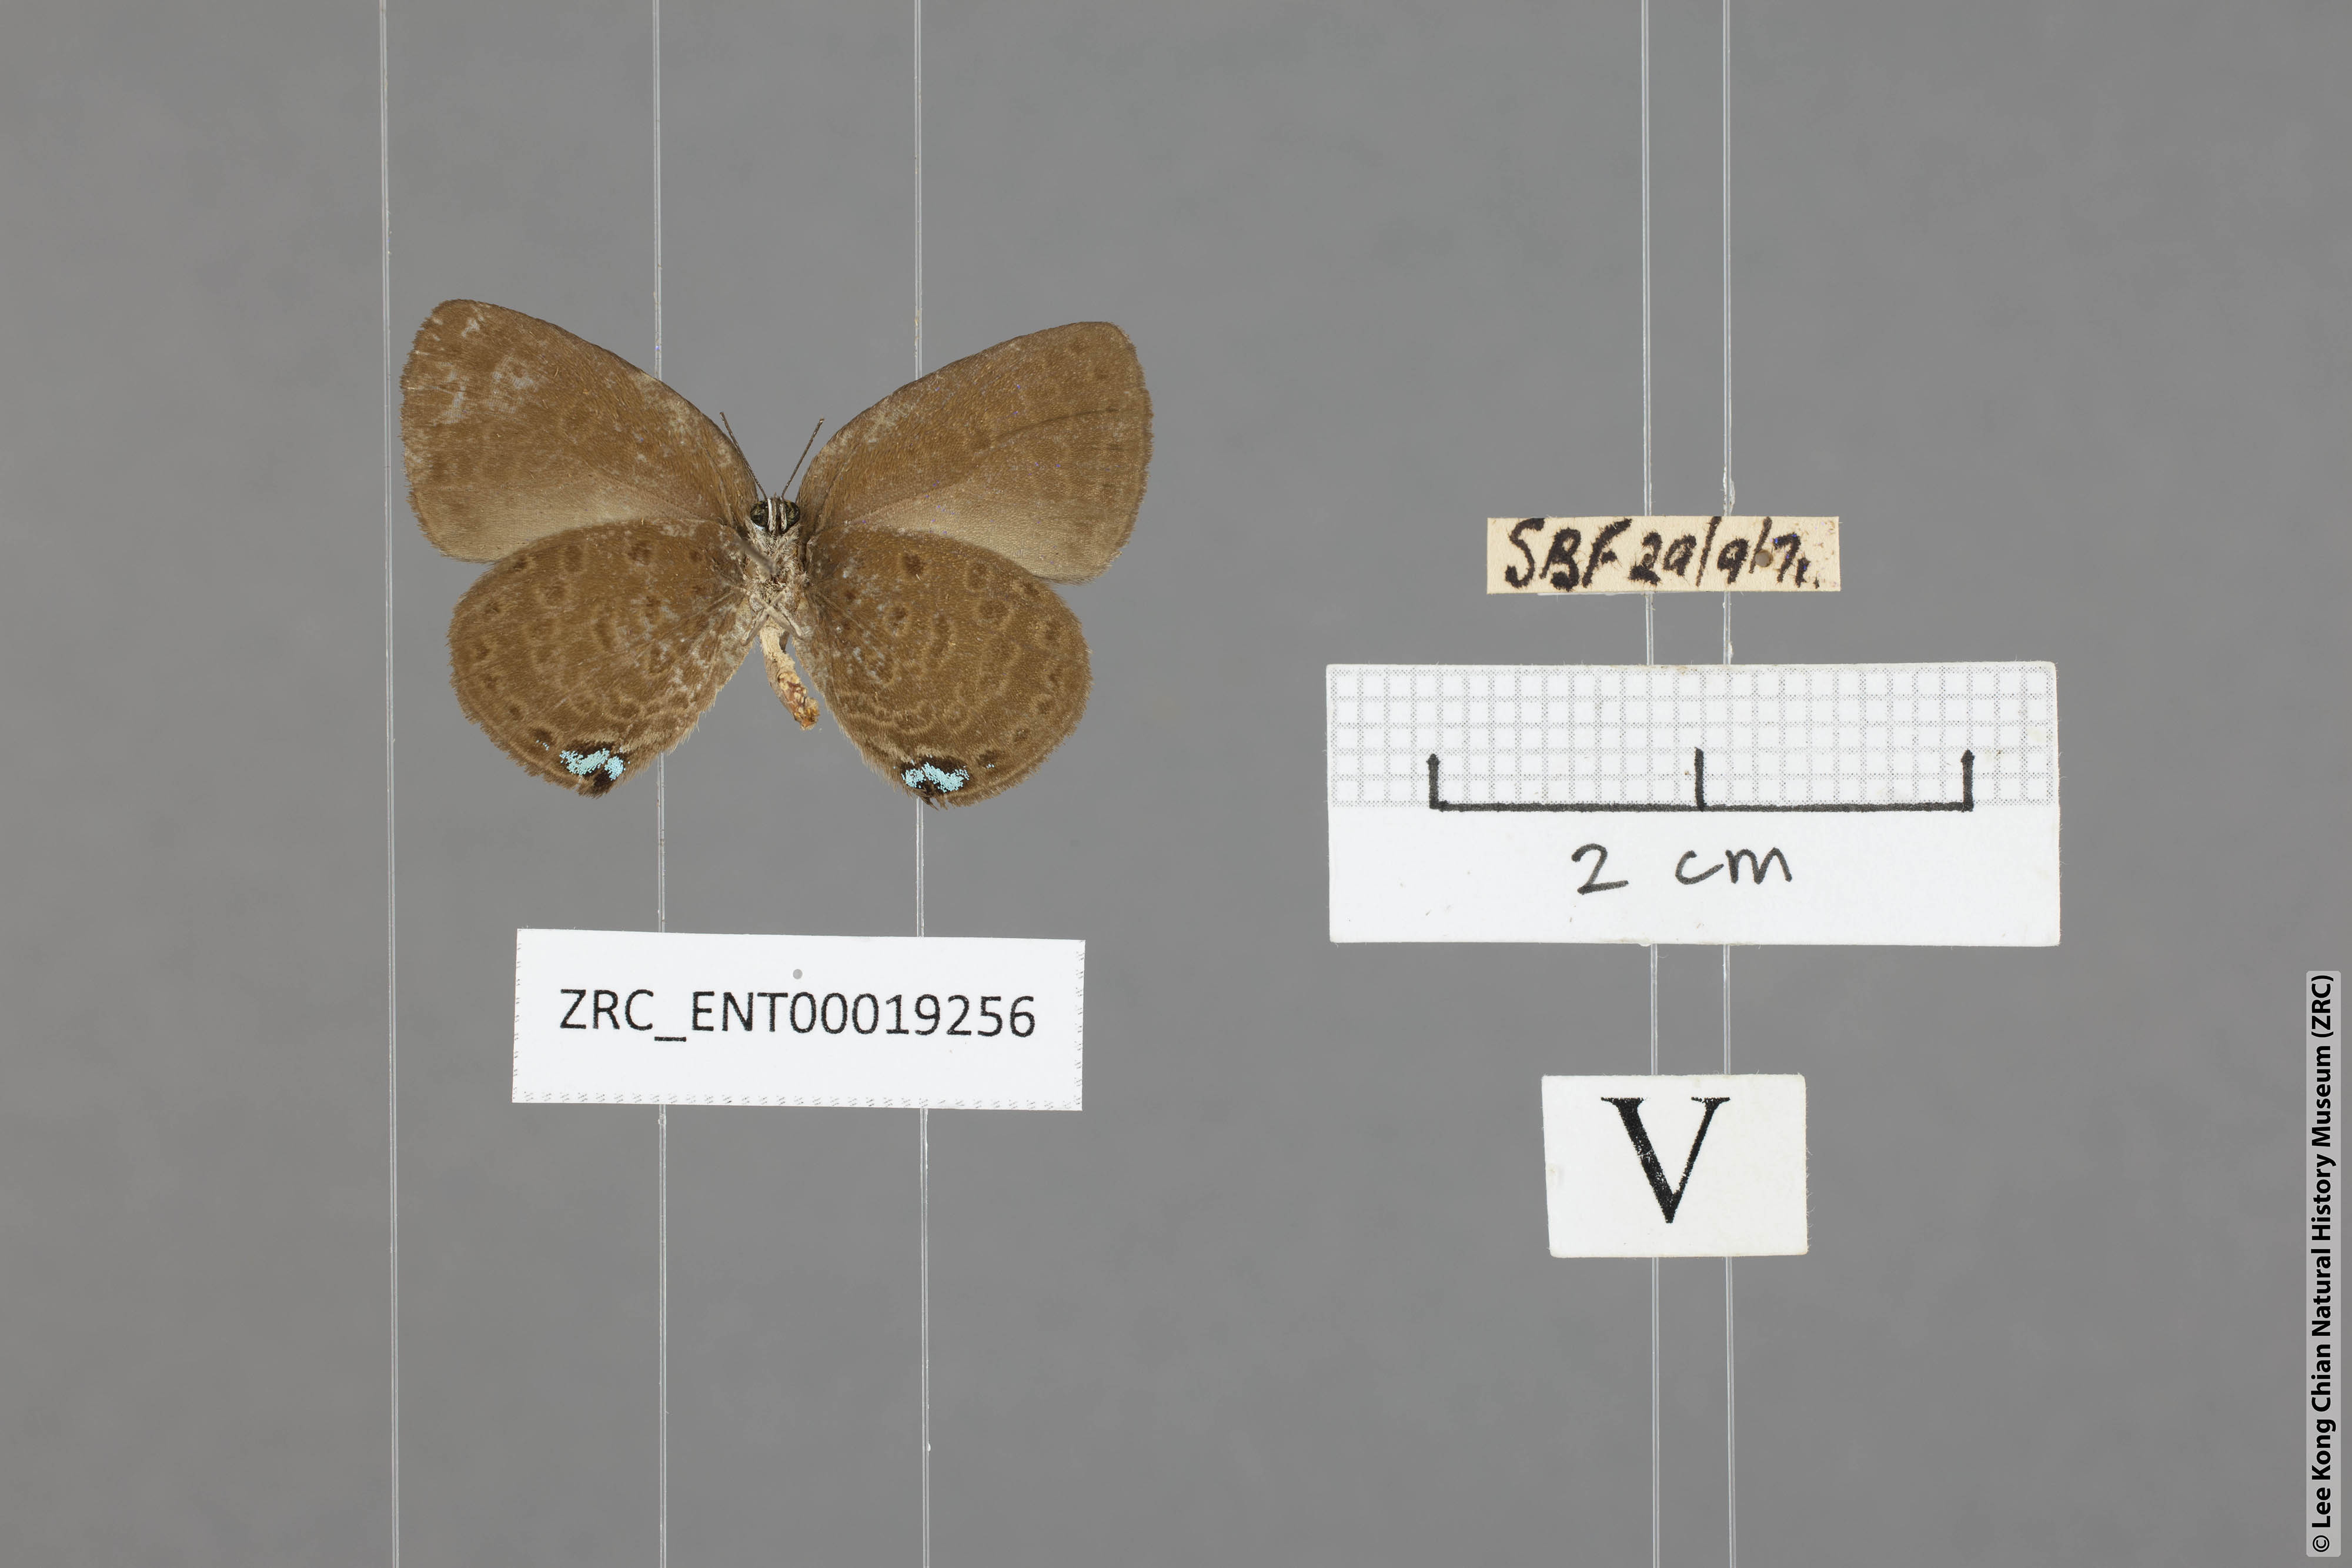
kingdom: Animalia
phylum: Arthropoda
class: Insecta
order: Lepidoptera
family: Lycaenidae
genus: Arhopala
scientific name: Arhopala avathina
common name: Lunulate yellow oakblue
